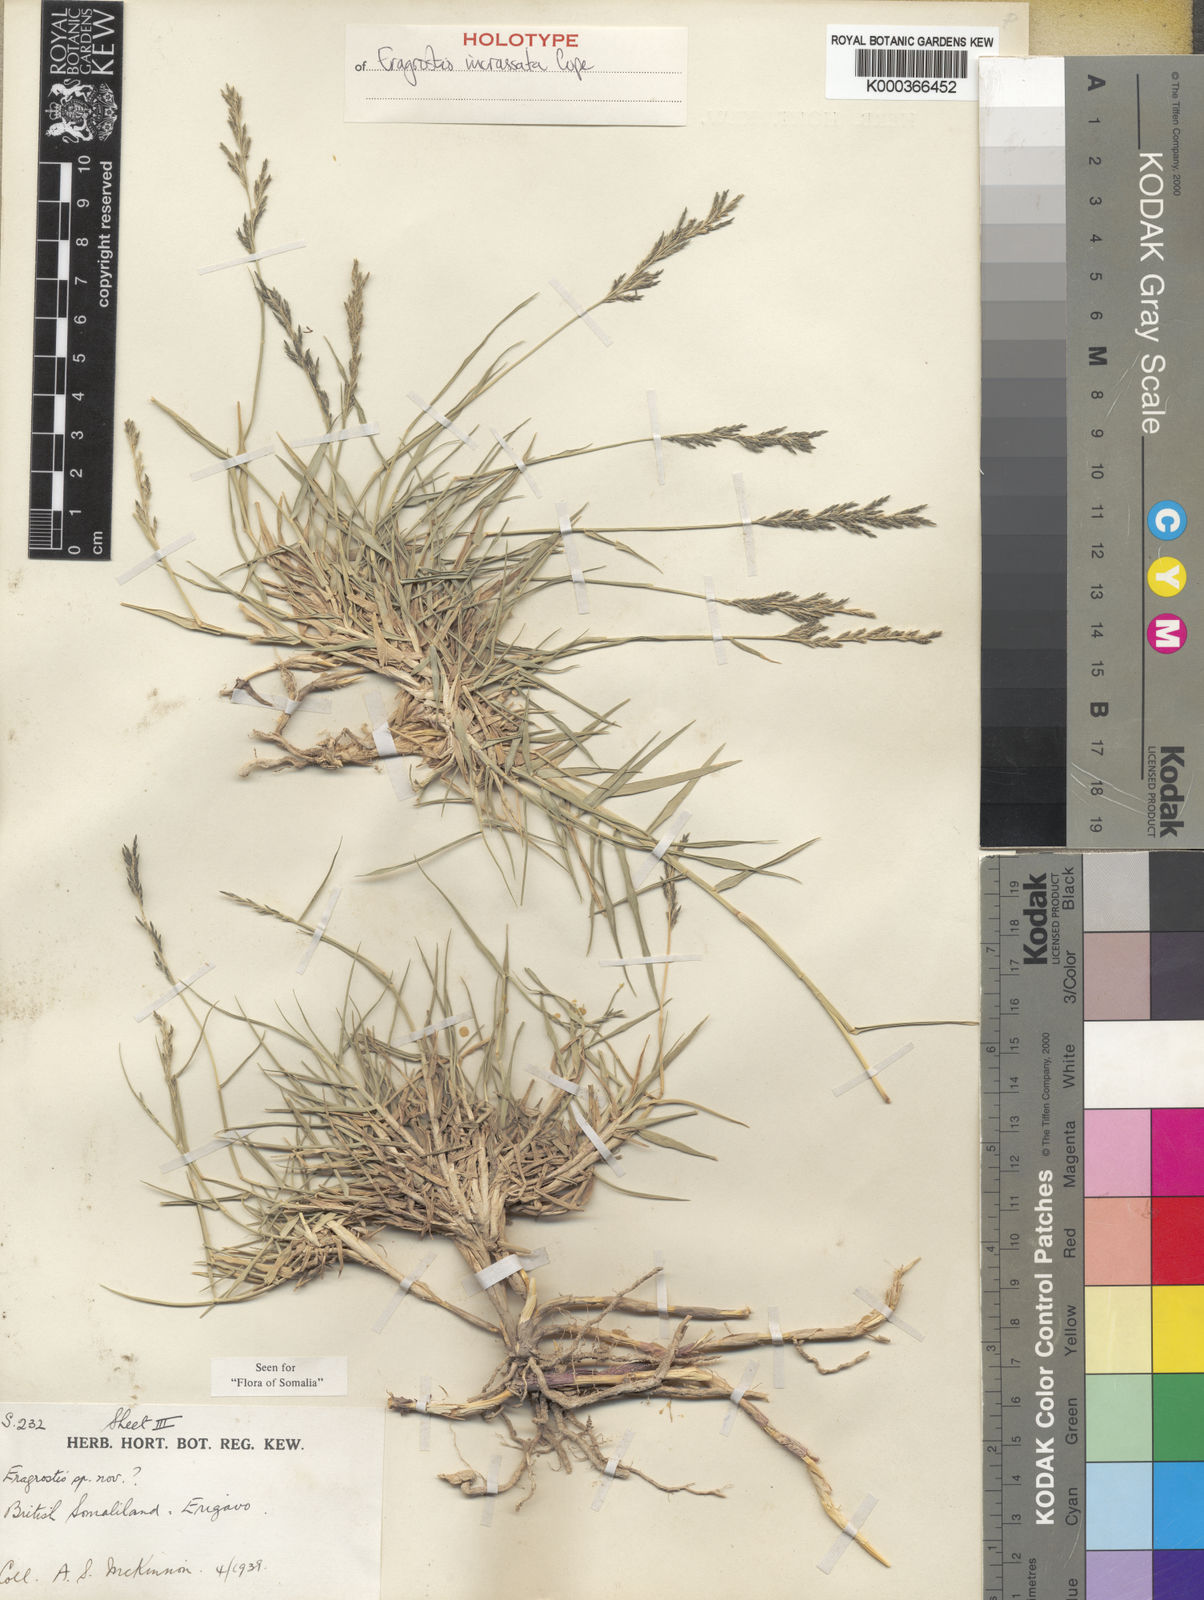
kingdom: Plantae
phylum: Tracheophyta
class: Liliopsida
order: Poales
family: Poaceae
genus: Eragrostis
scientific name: Eragrostis incrassata
